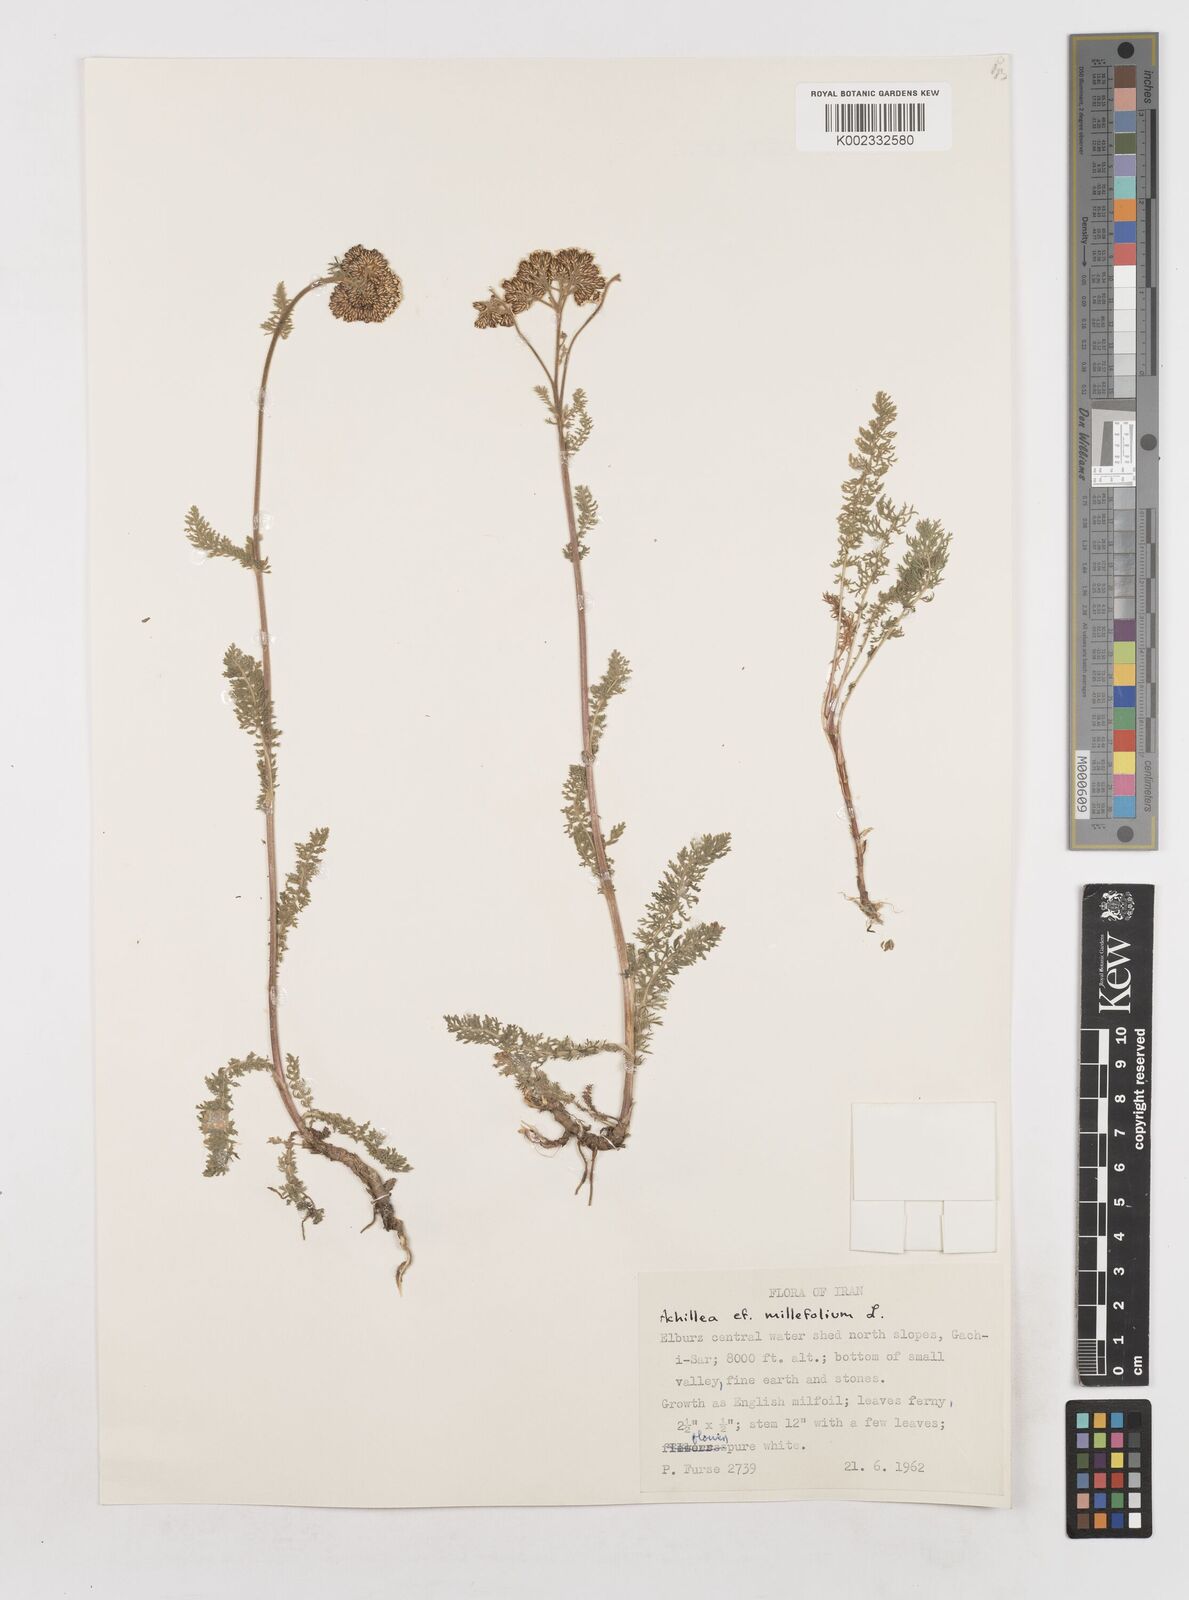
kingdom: Plantae
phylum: Tracheophyta
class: Magnoliopsida
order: Asterales
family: Asteraceae
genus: Achillea
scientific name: Achillea millefolium
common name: Yarrow
